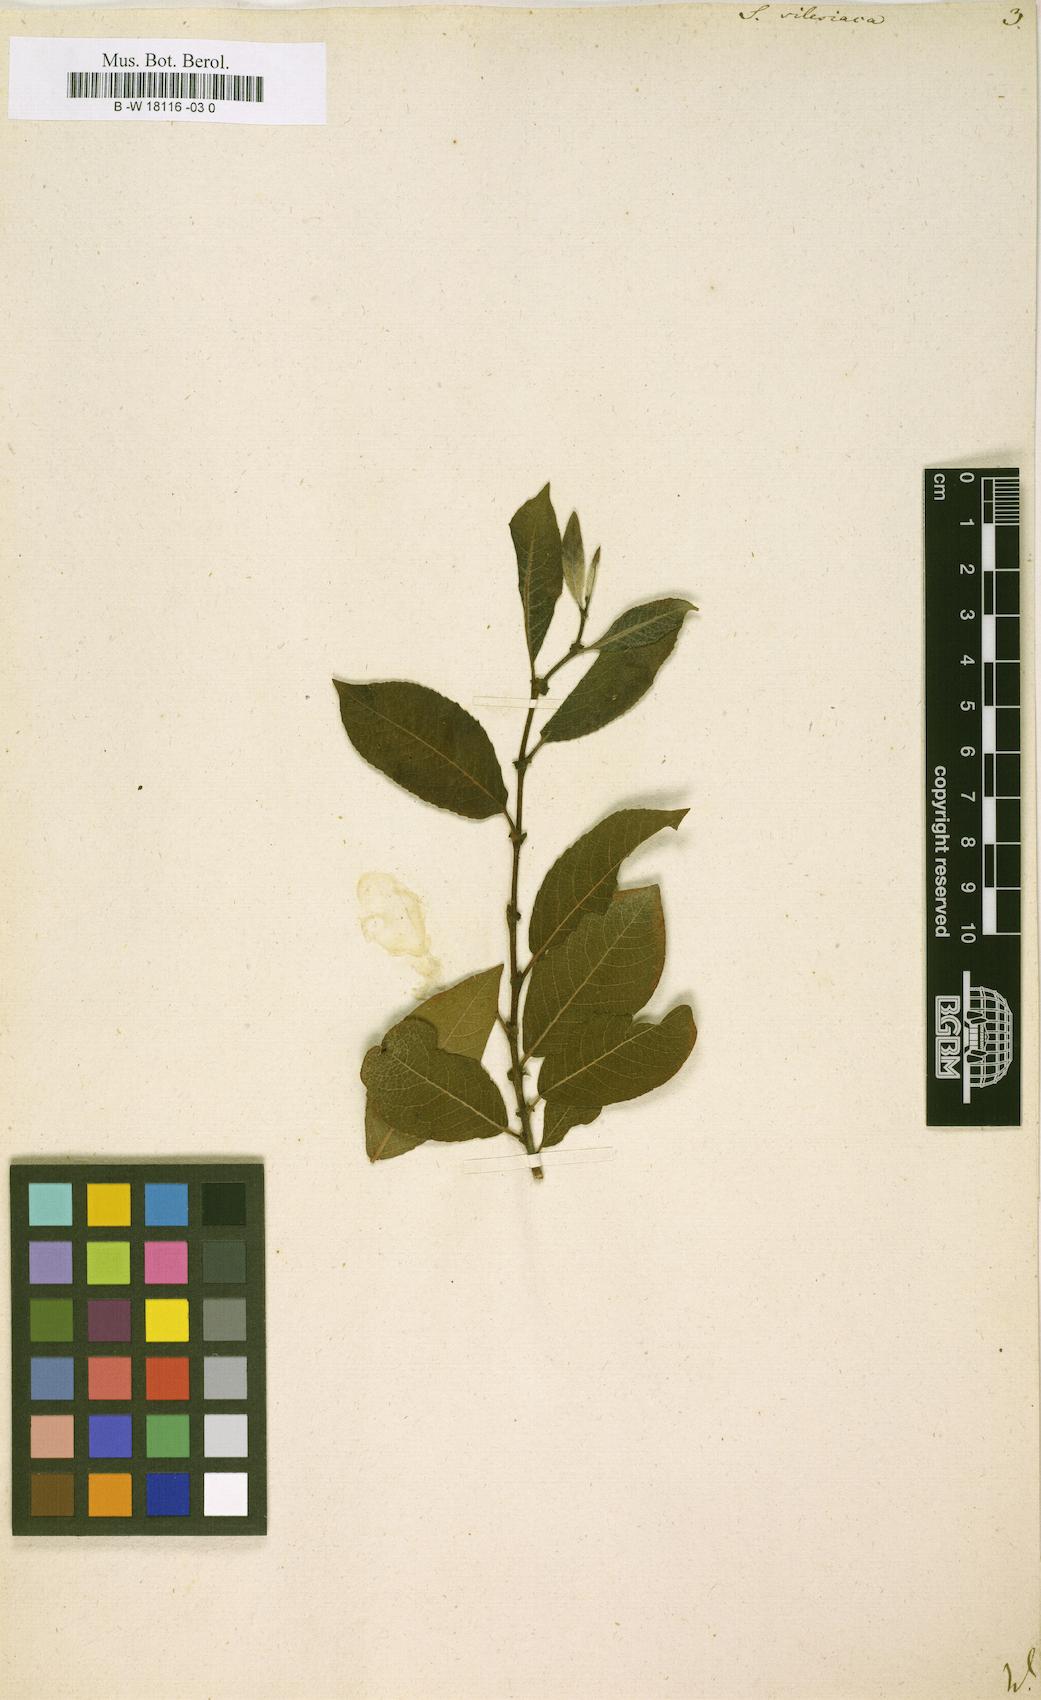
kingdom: Plantae
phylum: Tracheophyta
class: Magnoliopsida
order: Malpighiales
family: Salicaceae
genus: Salix
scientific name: Salix silesiaca
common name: Silesian willow
